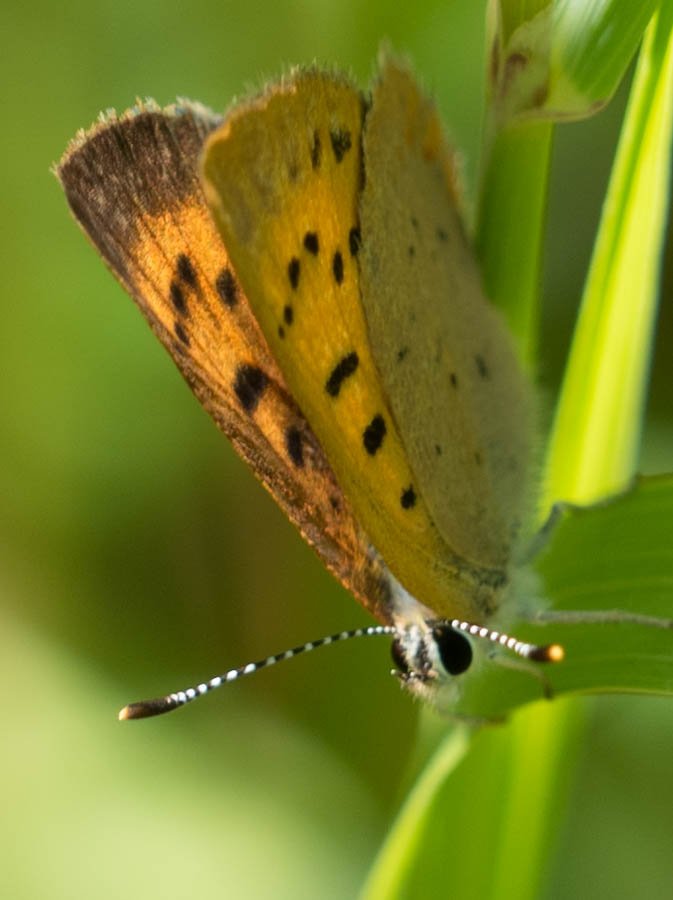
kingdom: Animalia
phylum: Arthropoda
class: Insecta
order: Lepidoptera
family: Sesiidae
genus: Sesia
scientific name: Sesia Lycaena helloides
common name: Purplish Copper
